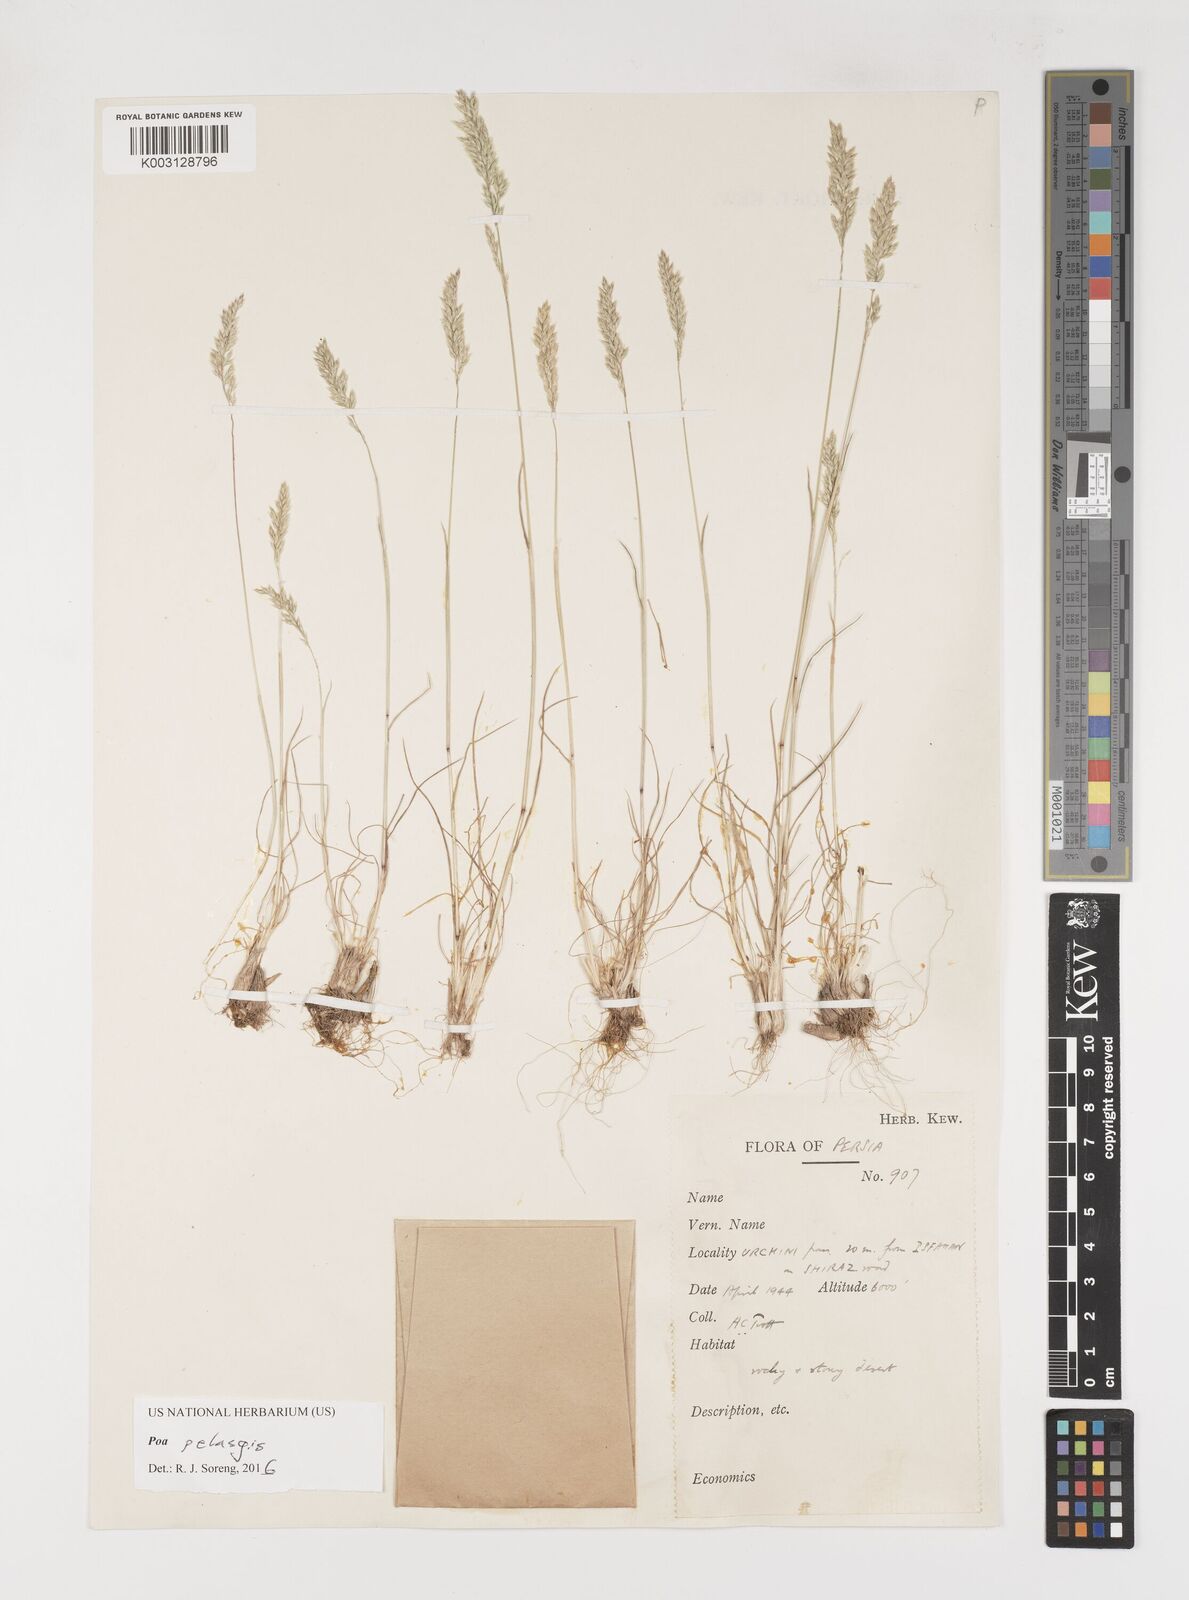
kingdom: Plantae
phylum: Tracheophyta
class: Liliopsida
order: Poales
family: Poaceae
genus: Poa
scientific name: Poa iconia
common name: Konya bluegrass
